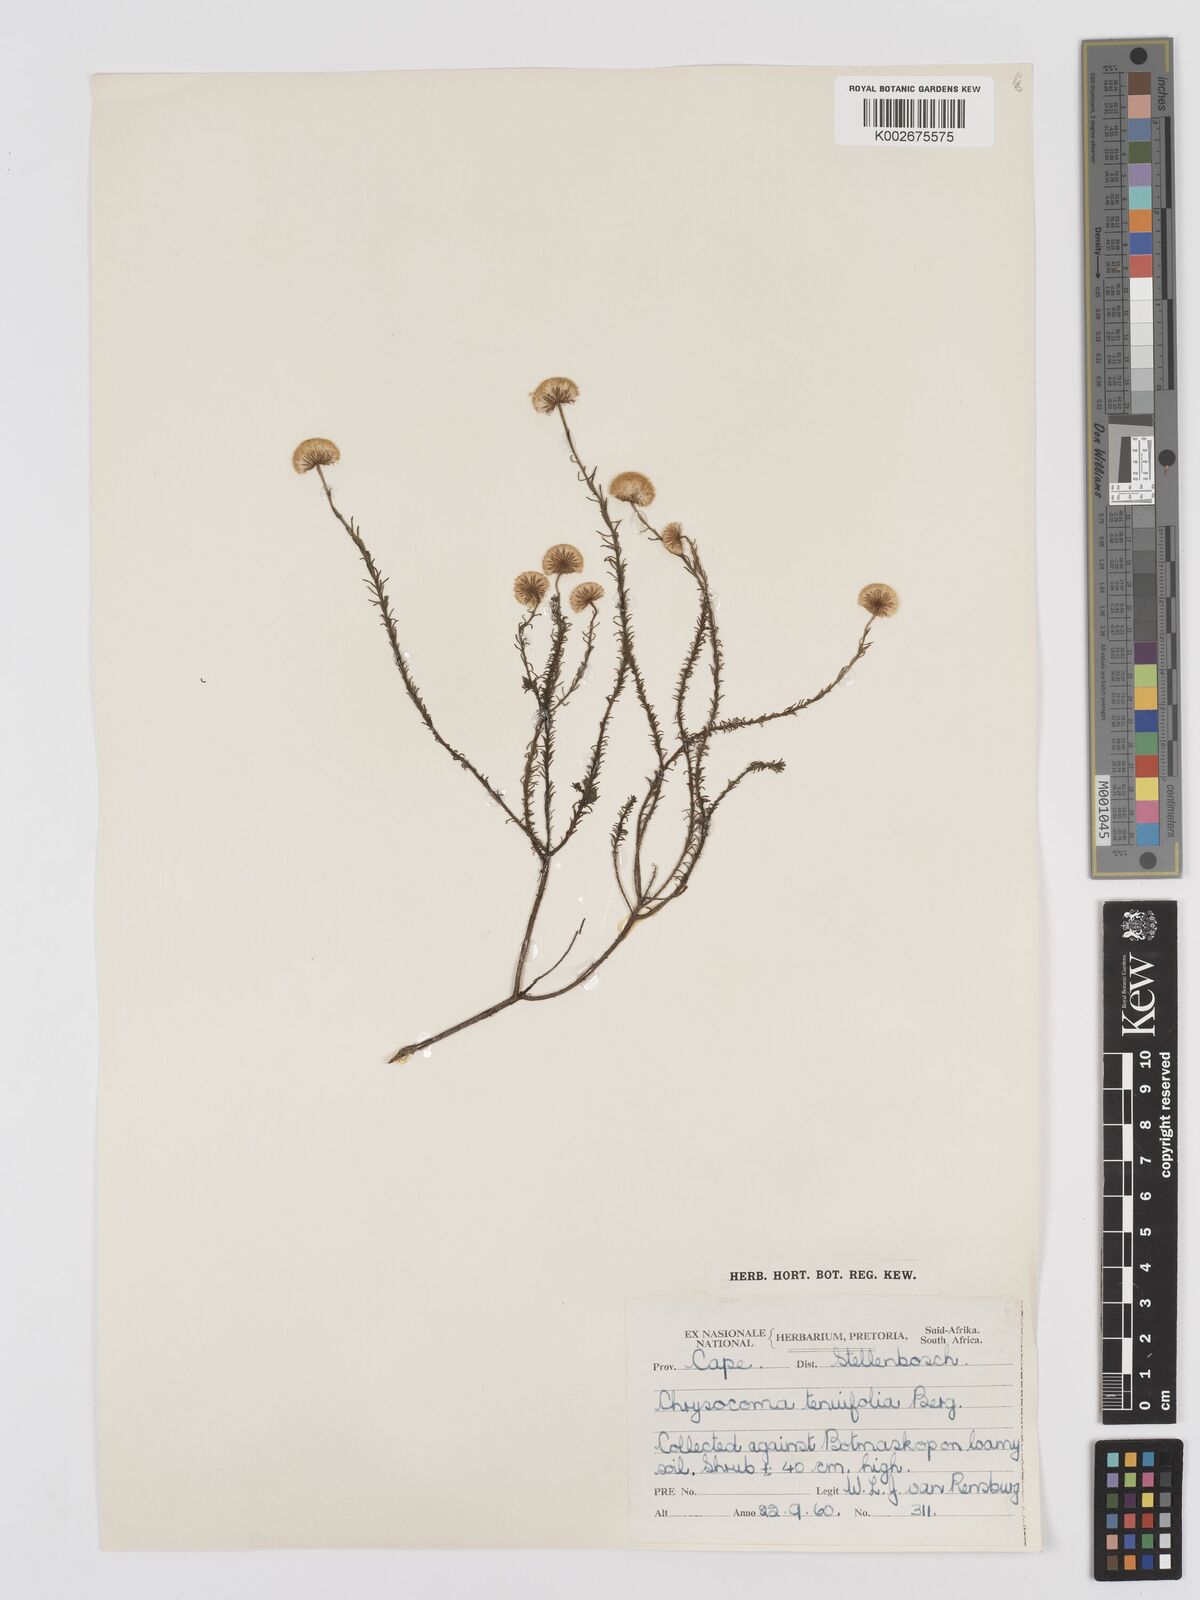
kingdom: Plantae
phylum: Tracheophyta
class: Magnoliopsida
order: Asterales
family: Asteraceae
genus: Chrysocoma
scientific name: Chrysocoma ciliata
